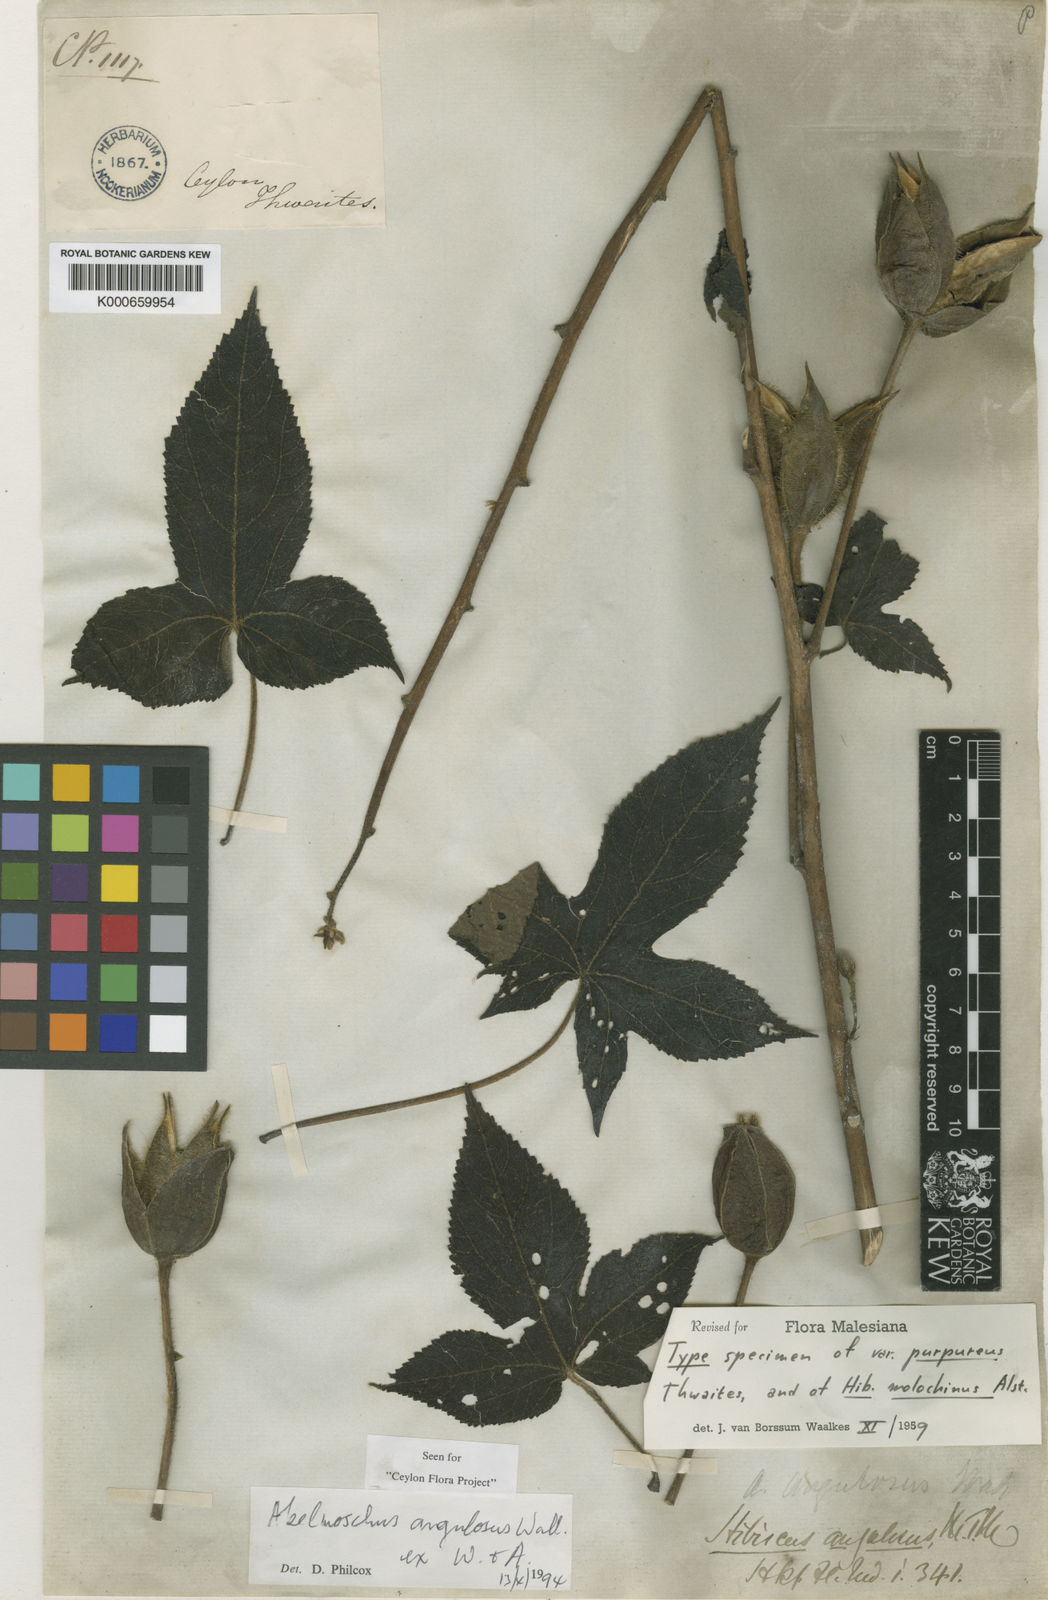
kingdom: Plantae
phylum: Tracheophyta
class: Magnoliopsida
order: Malvales
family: Malvaceae
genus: Abelmoschus
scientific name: Abelmoschus angulosus
